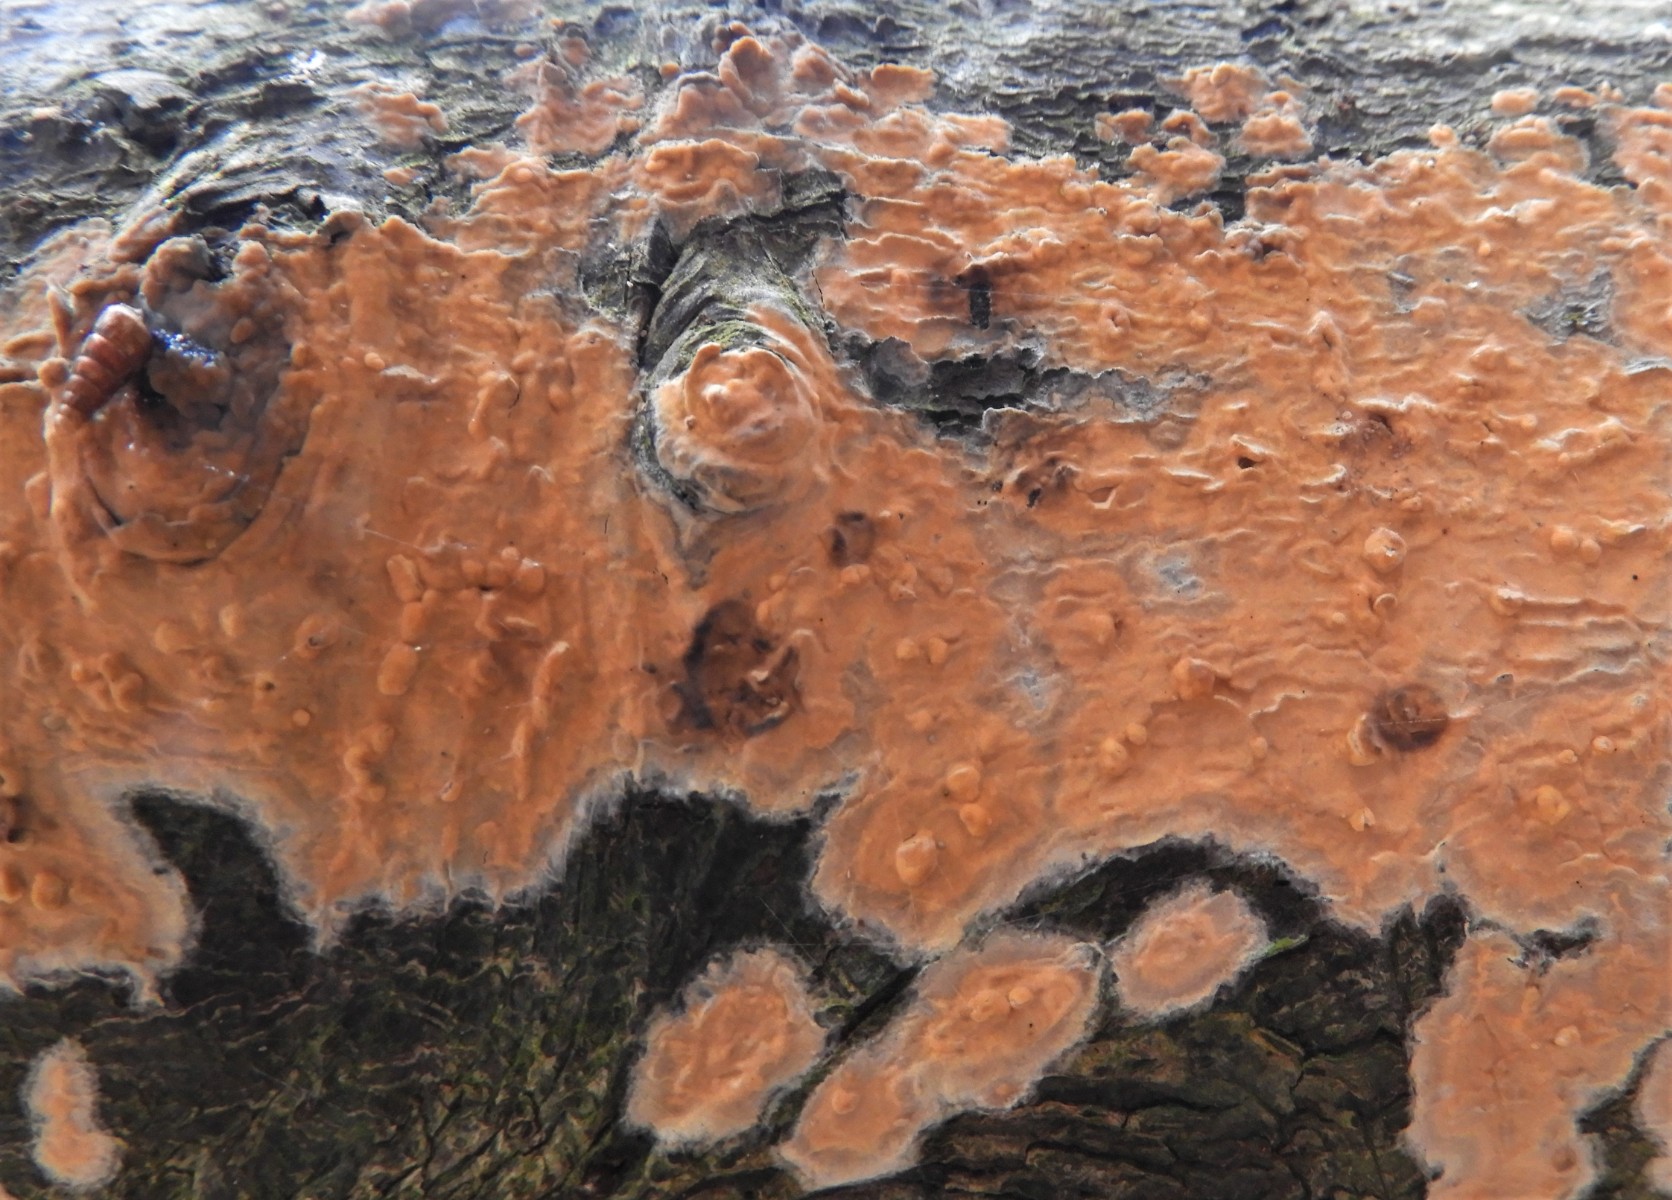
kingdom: Fungi
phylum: Basidiomycota
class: Agaricomycetes
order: Russulales
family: Peniophoraceae
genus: Peniophora
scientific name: Peniophora incarnata
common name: laksefarvet voksskind
